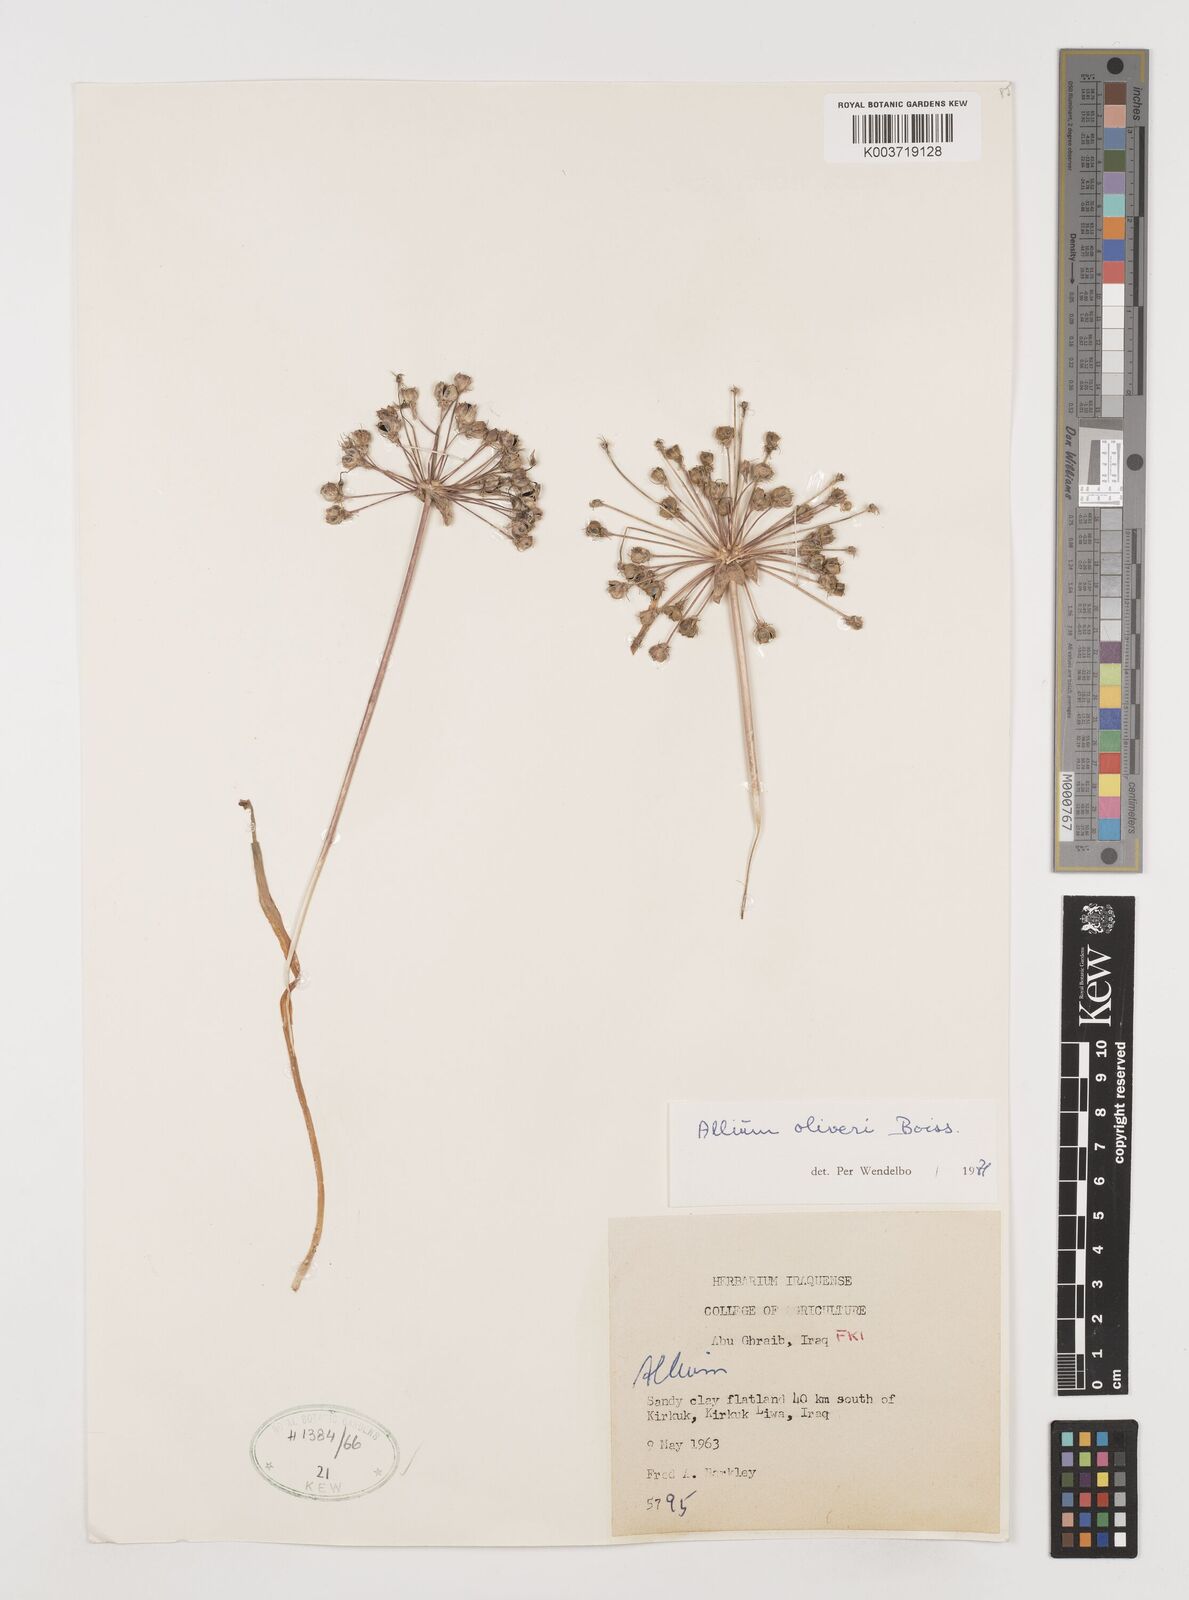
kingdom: Plantae
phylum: Tracheophyta
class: Liliopsida
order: Asparagales
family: Amaryllidaceae
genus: Allium
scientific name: Allium olivieri
